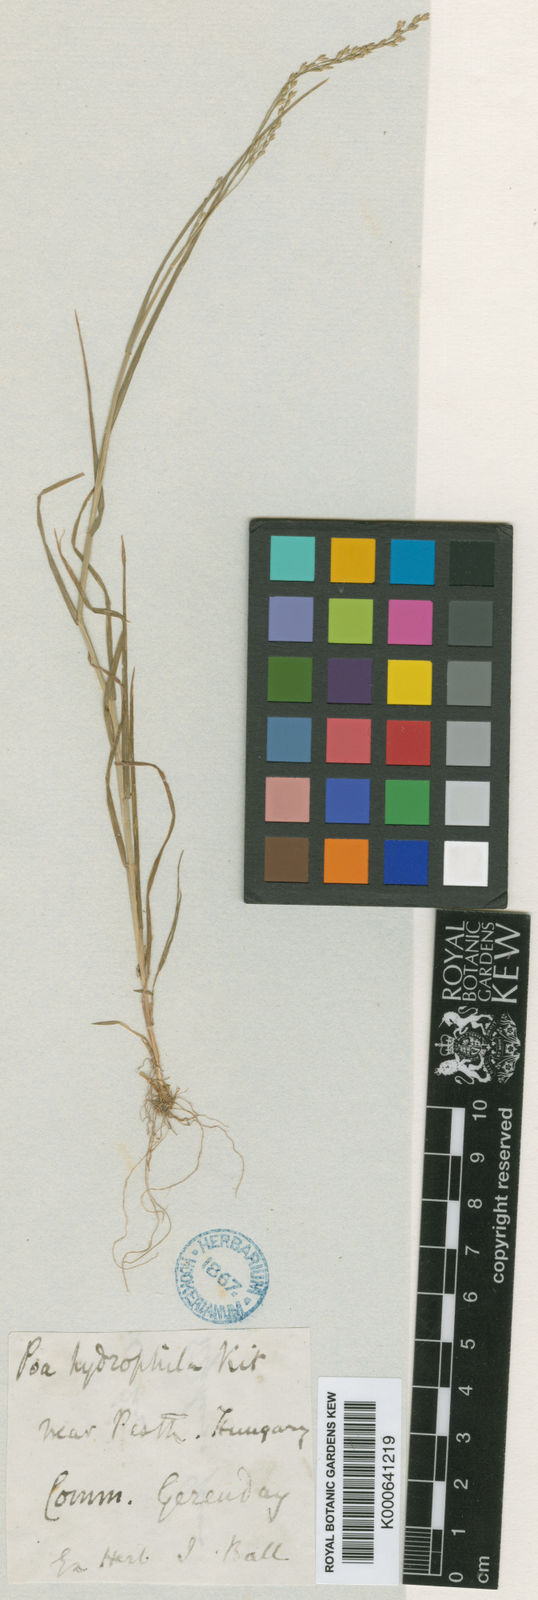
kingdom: Plantae
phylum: Tracheophyta
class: Liliopsida
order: Poales
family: Poaceae
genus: Poa
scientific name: Poa palustris
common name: Swamp meadow-grass
